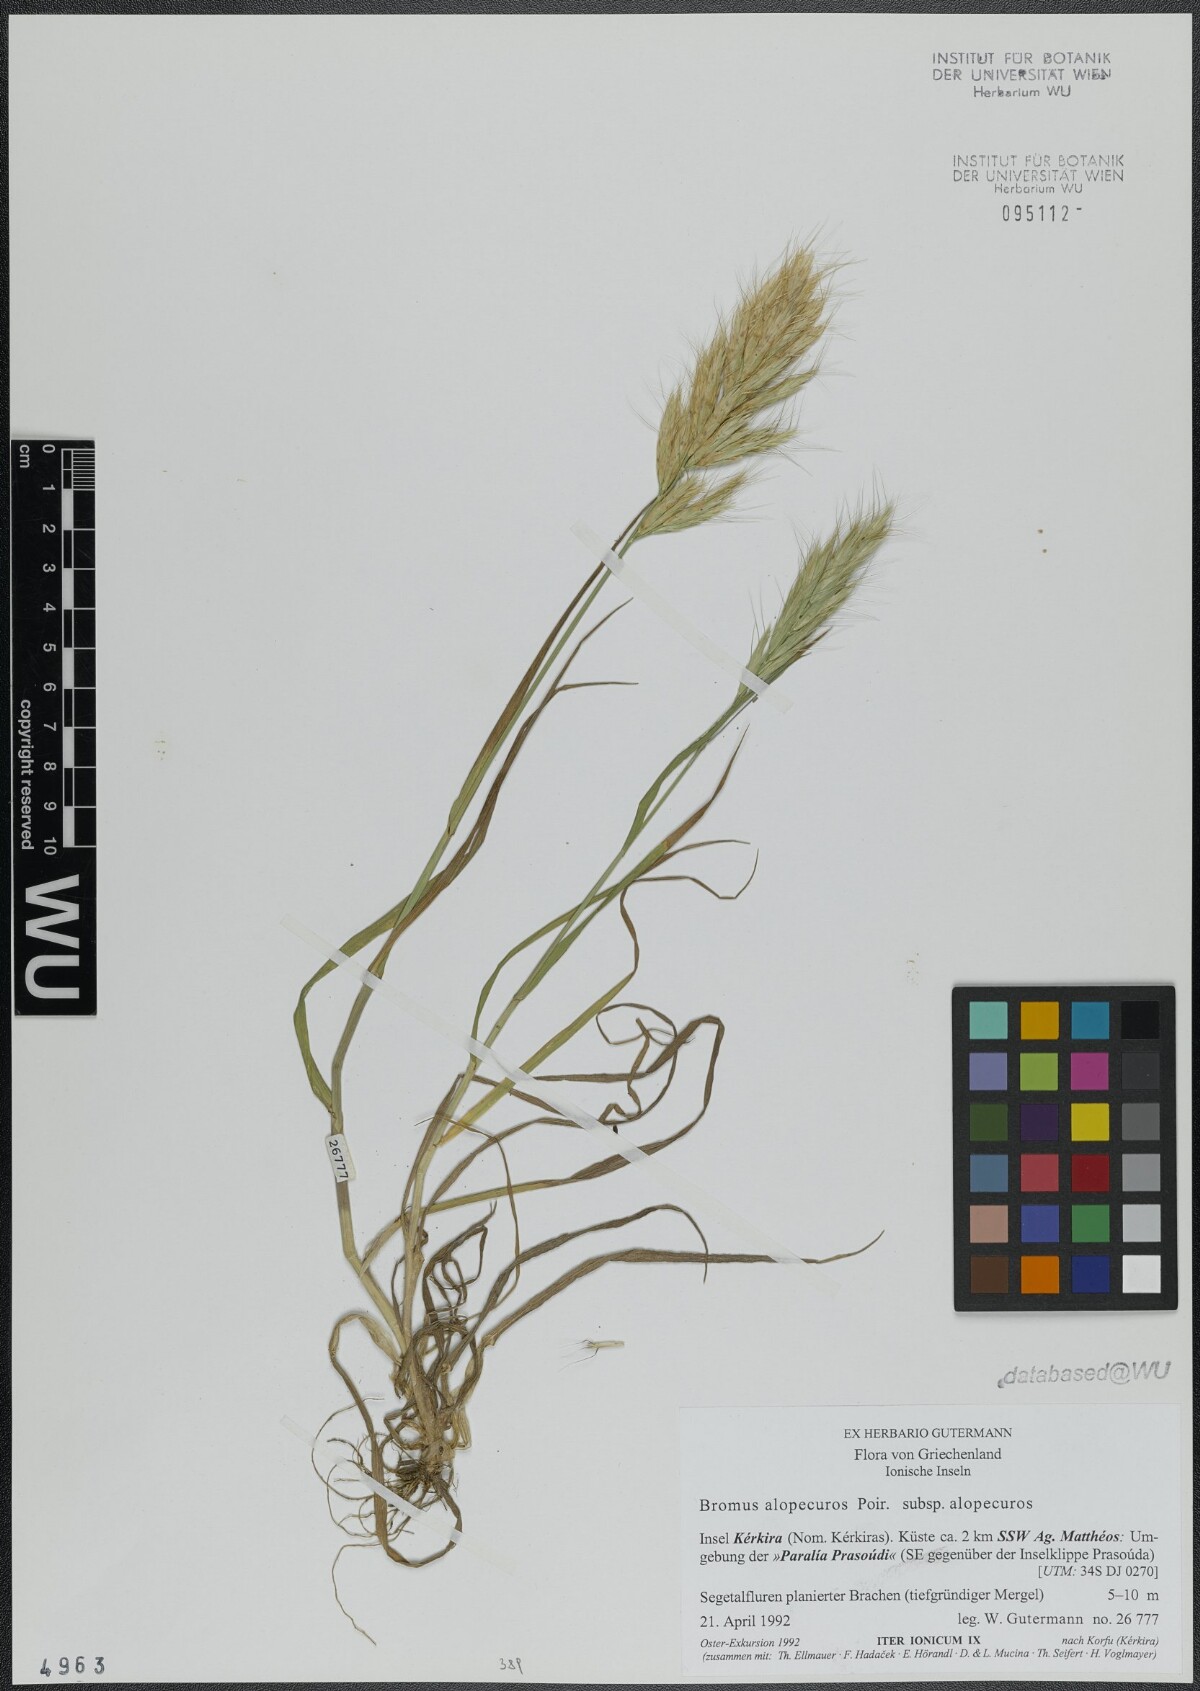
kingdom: Plantae
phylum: Tracheophyta
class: Liliopsida
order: Poales
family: Poaceae
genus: Bromus
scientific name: Bromus alopecuros
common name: Weedy brome
